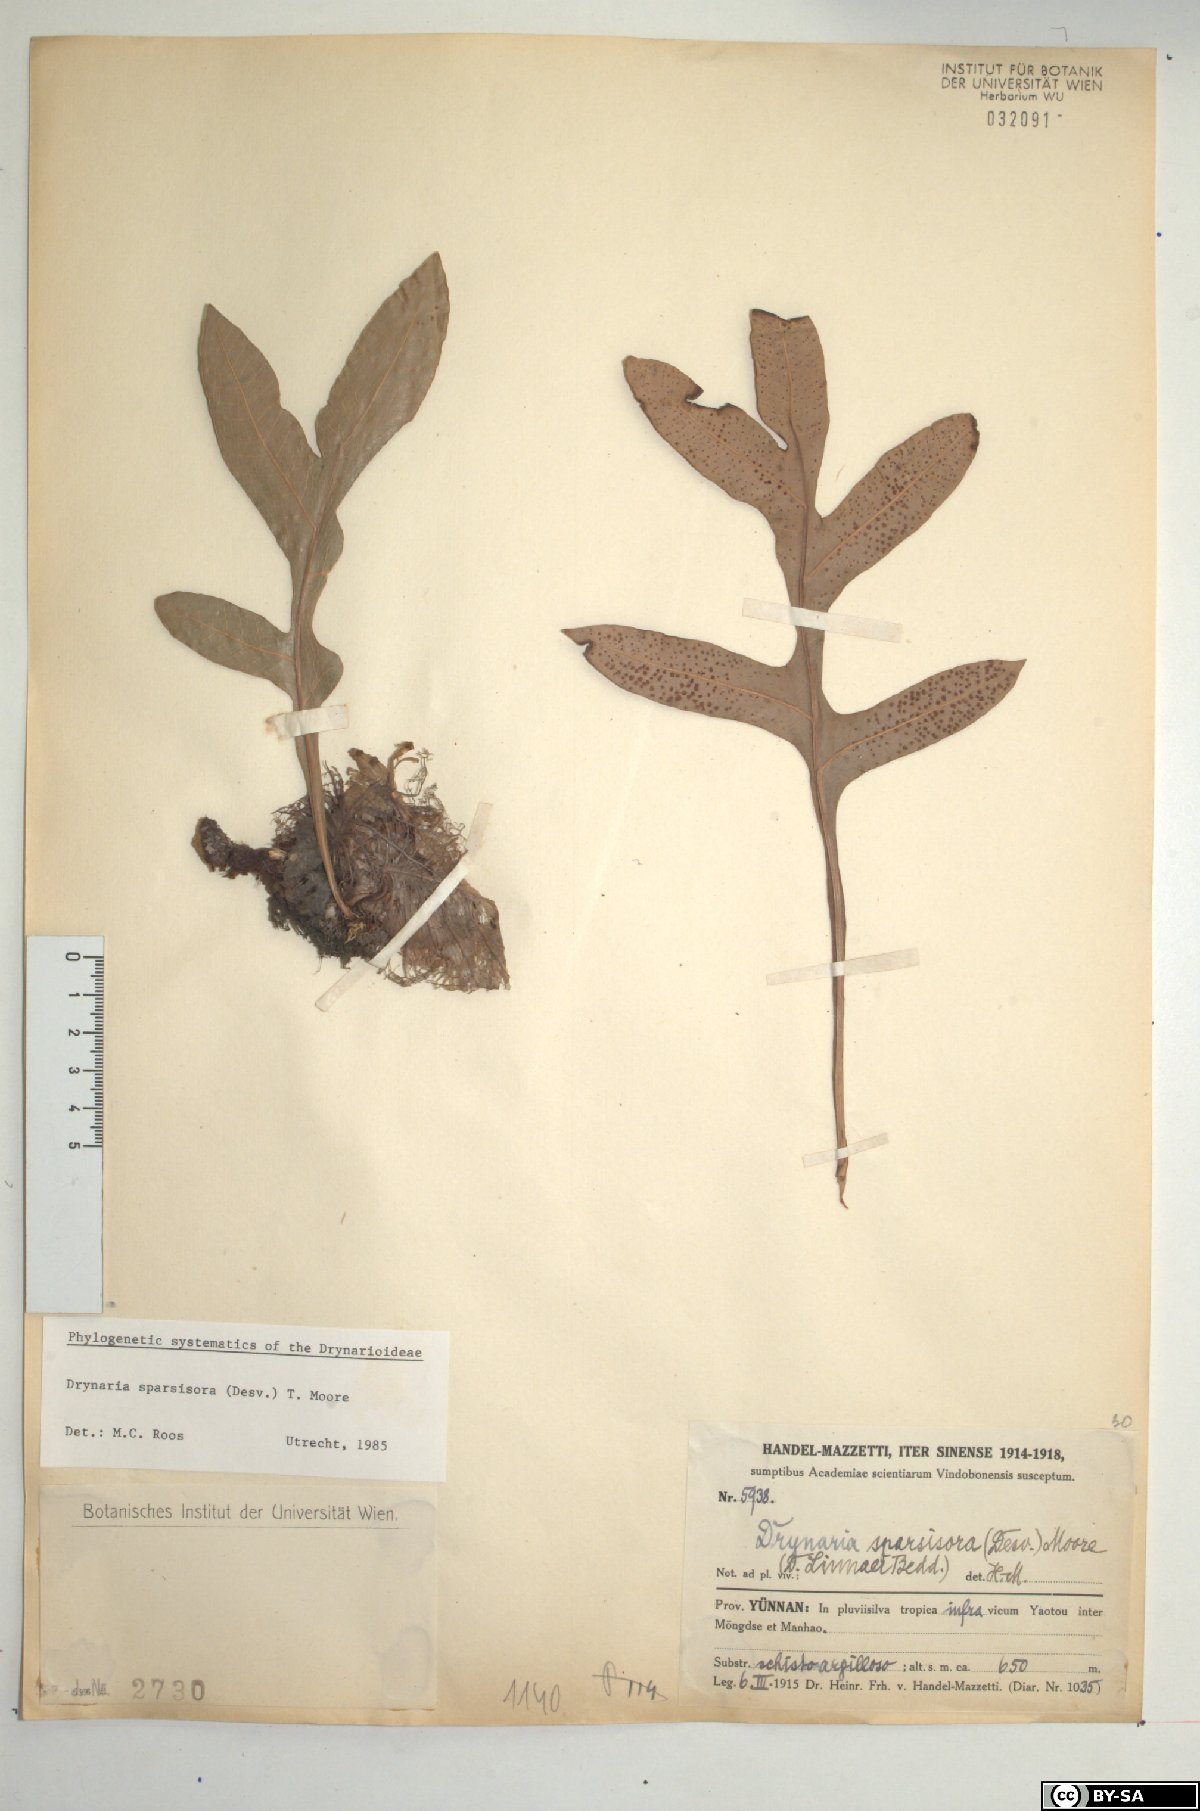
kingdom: Plantae
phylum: Tracheophyta
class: Polypodiopsida
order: Polypodiales
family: Polypodiaceae
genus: Drynaria
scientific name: Drynaria sparsisora
